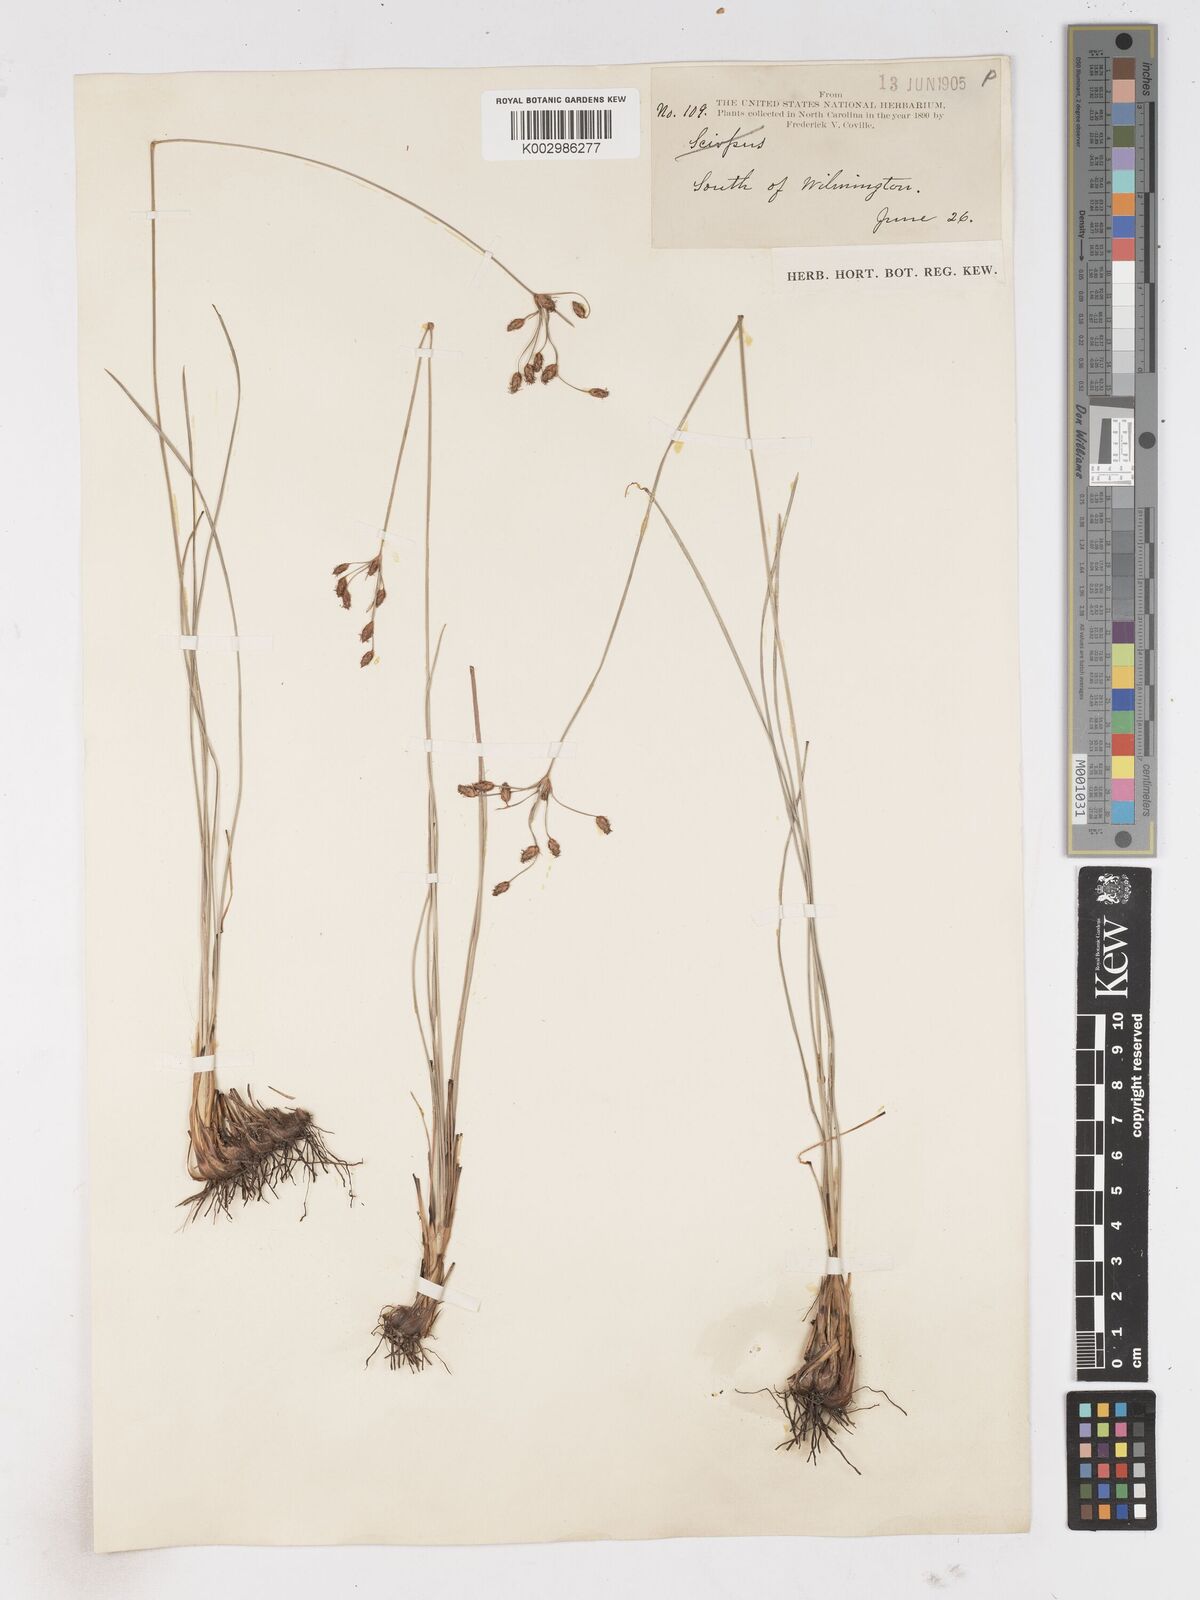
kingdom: Plantae
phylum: Tracheophyta
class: Liliopsida
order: Poales
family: Cyperaceae
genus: Fimbristylis
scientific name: Fimbristylis
